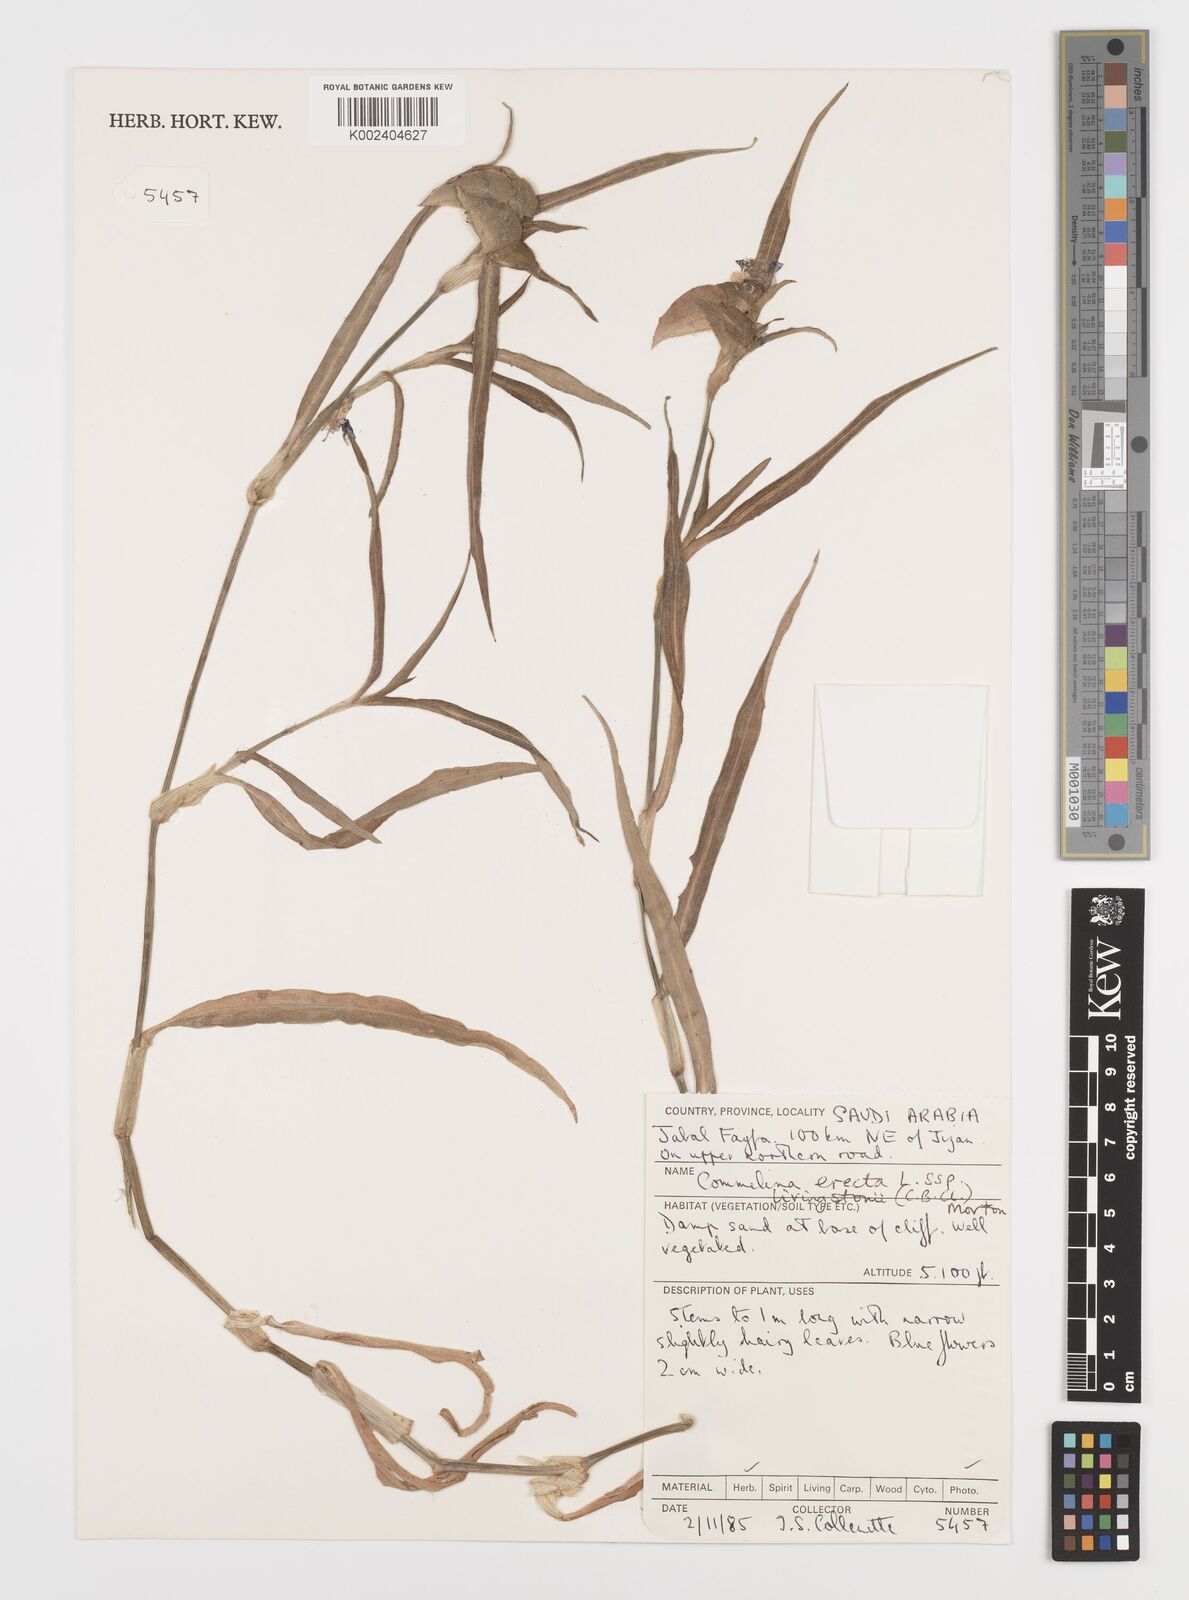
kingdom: Plantae
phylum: Tracheophyta
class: Liliopsida
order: Commelinales
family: Commelinaceae
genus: Commelina
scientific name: Commelina erecta
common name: Blousel blommetjie
